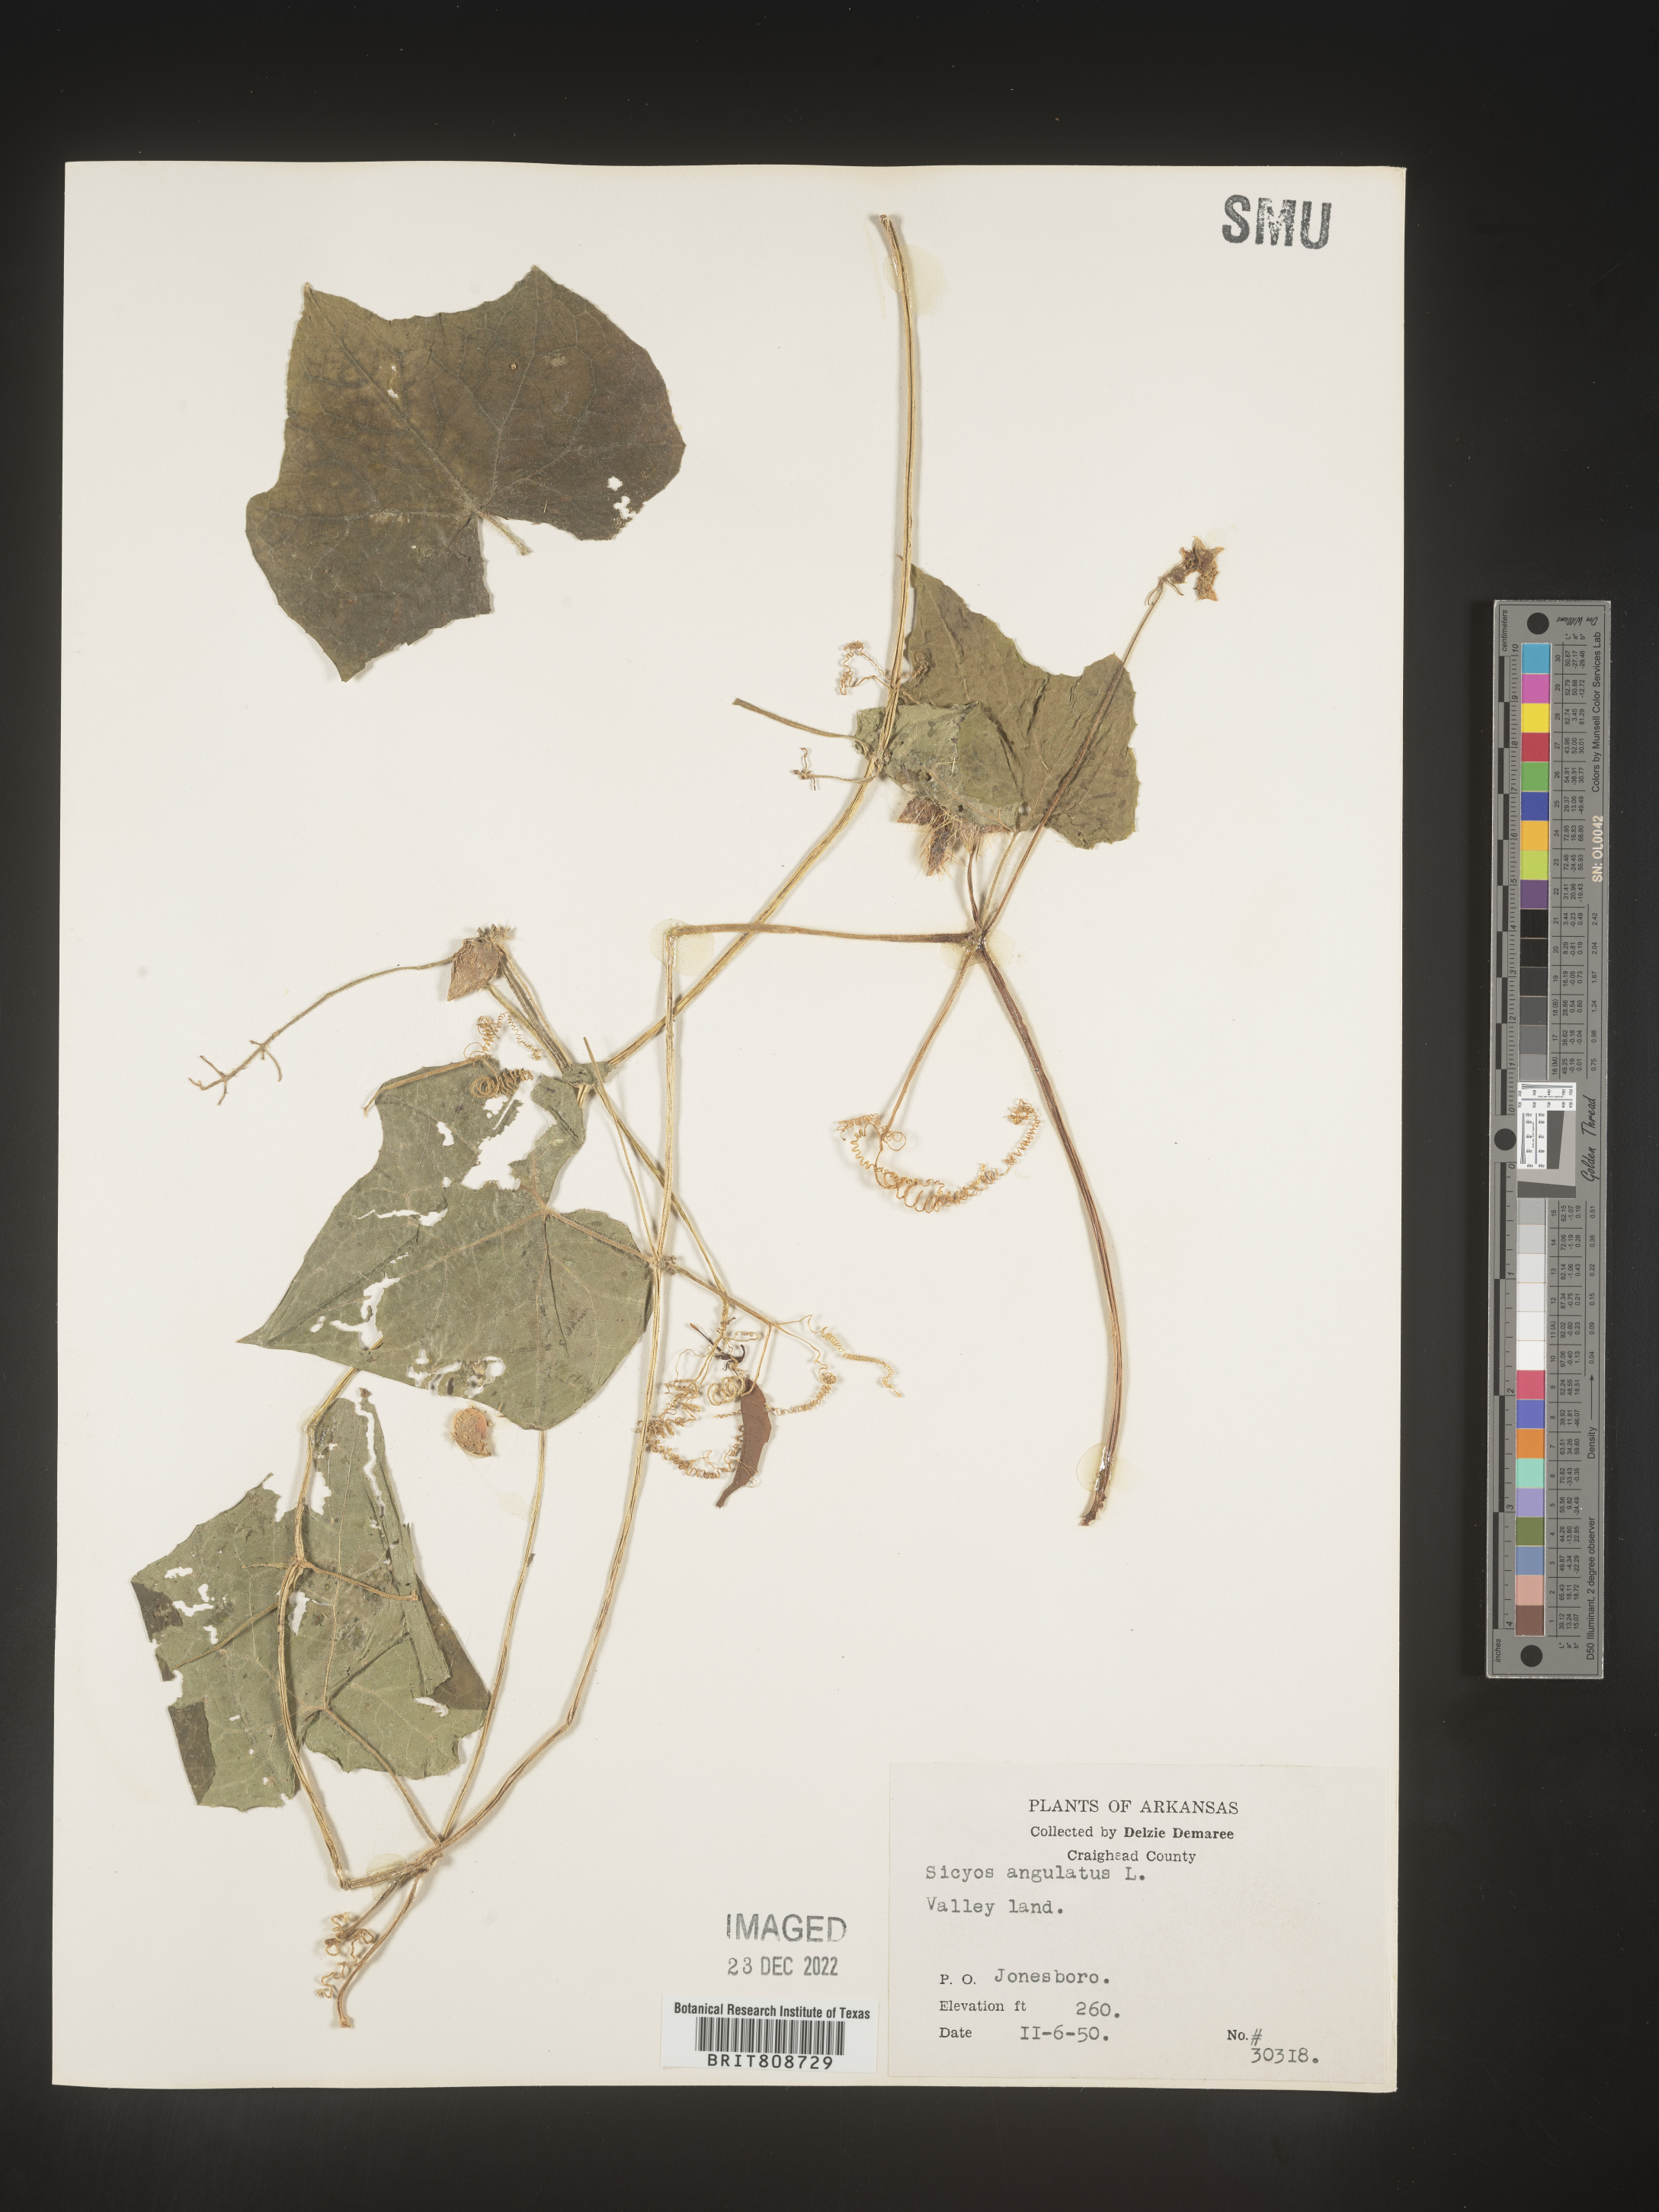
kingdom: Plantae
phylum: Tracheophyta
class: Magnoliopsida
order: Cucurbitales
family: Cucurbitaceae
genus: Sicyos
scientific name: Sicyos angulatus
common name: Angled burr cucumber
